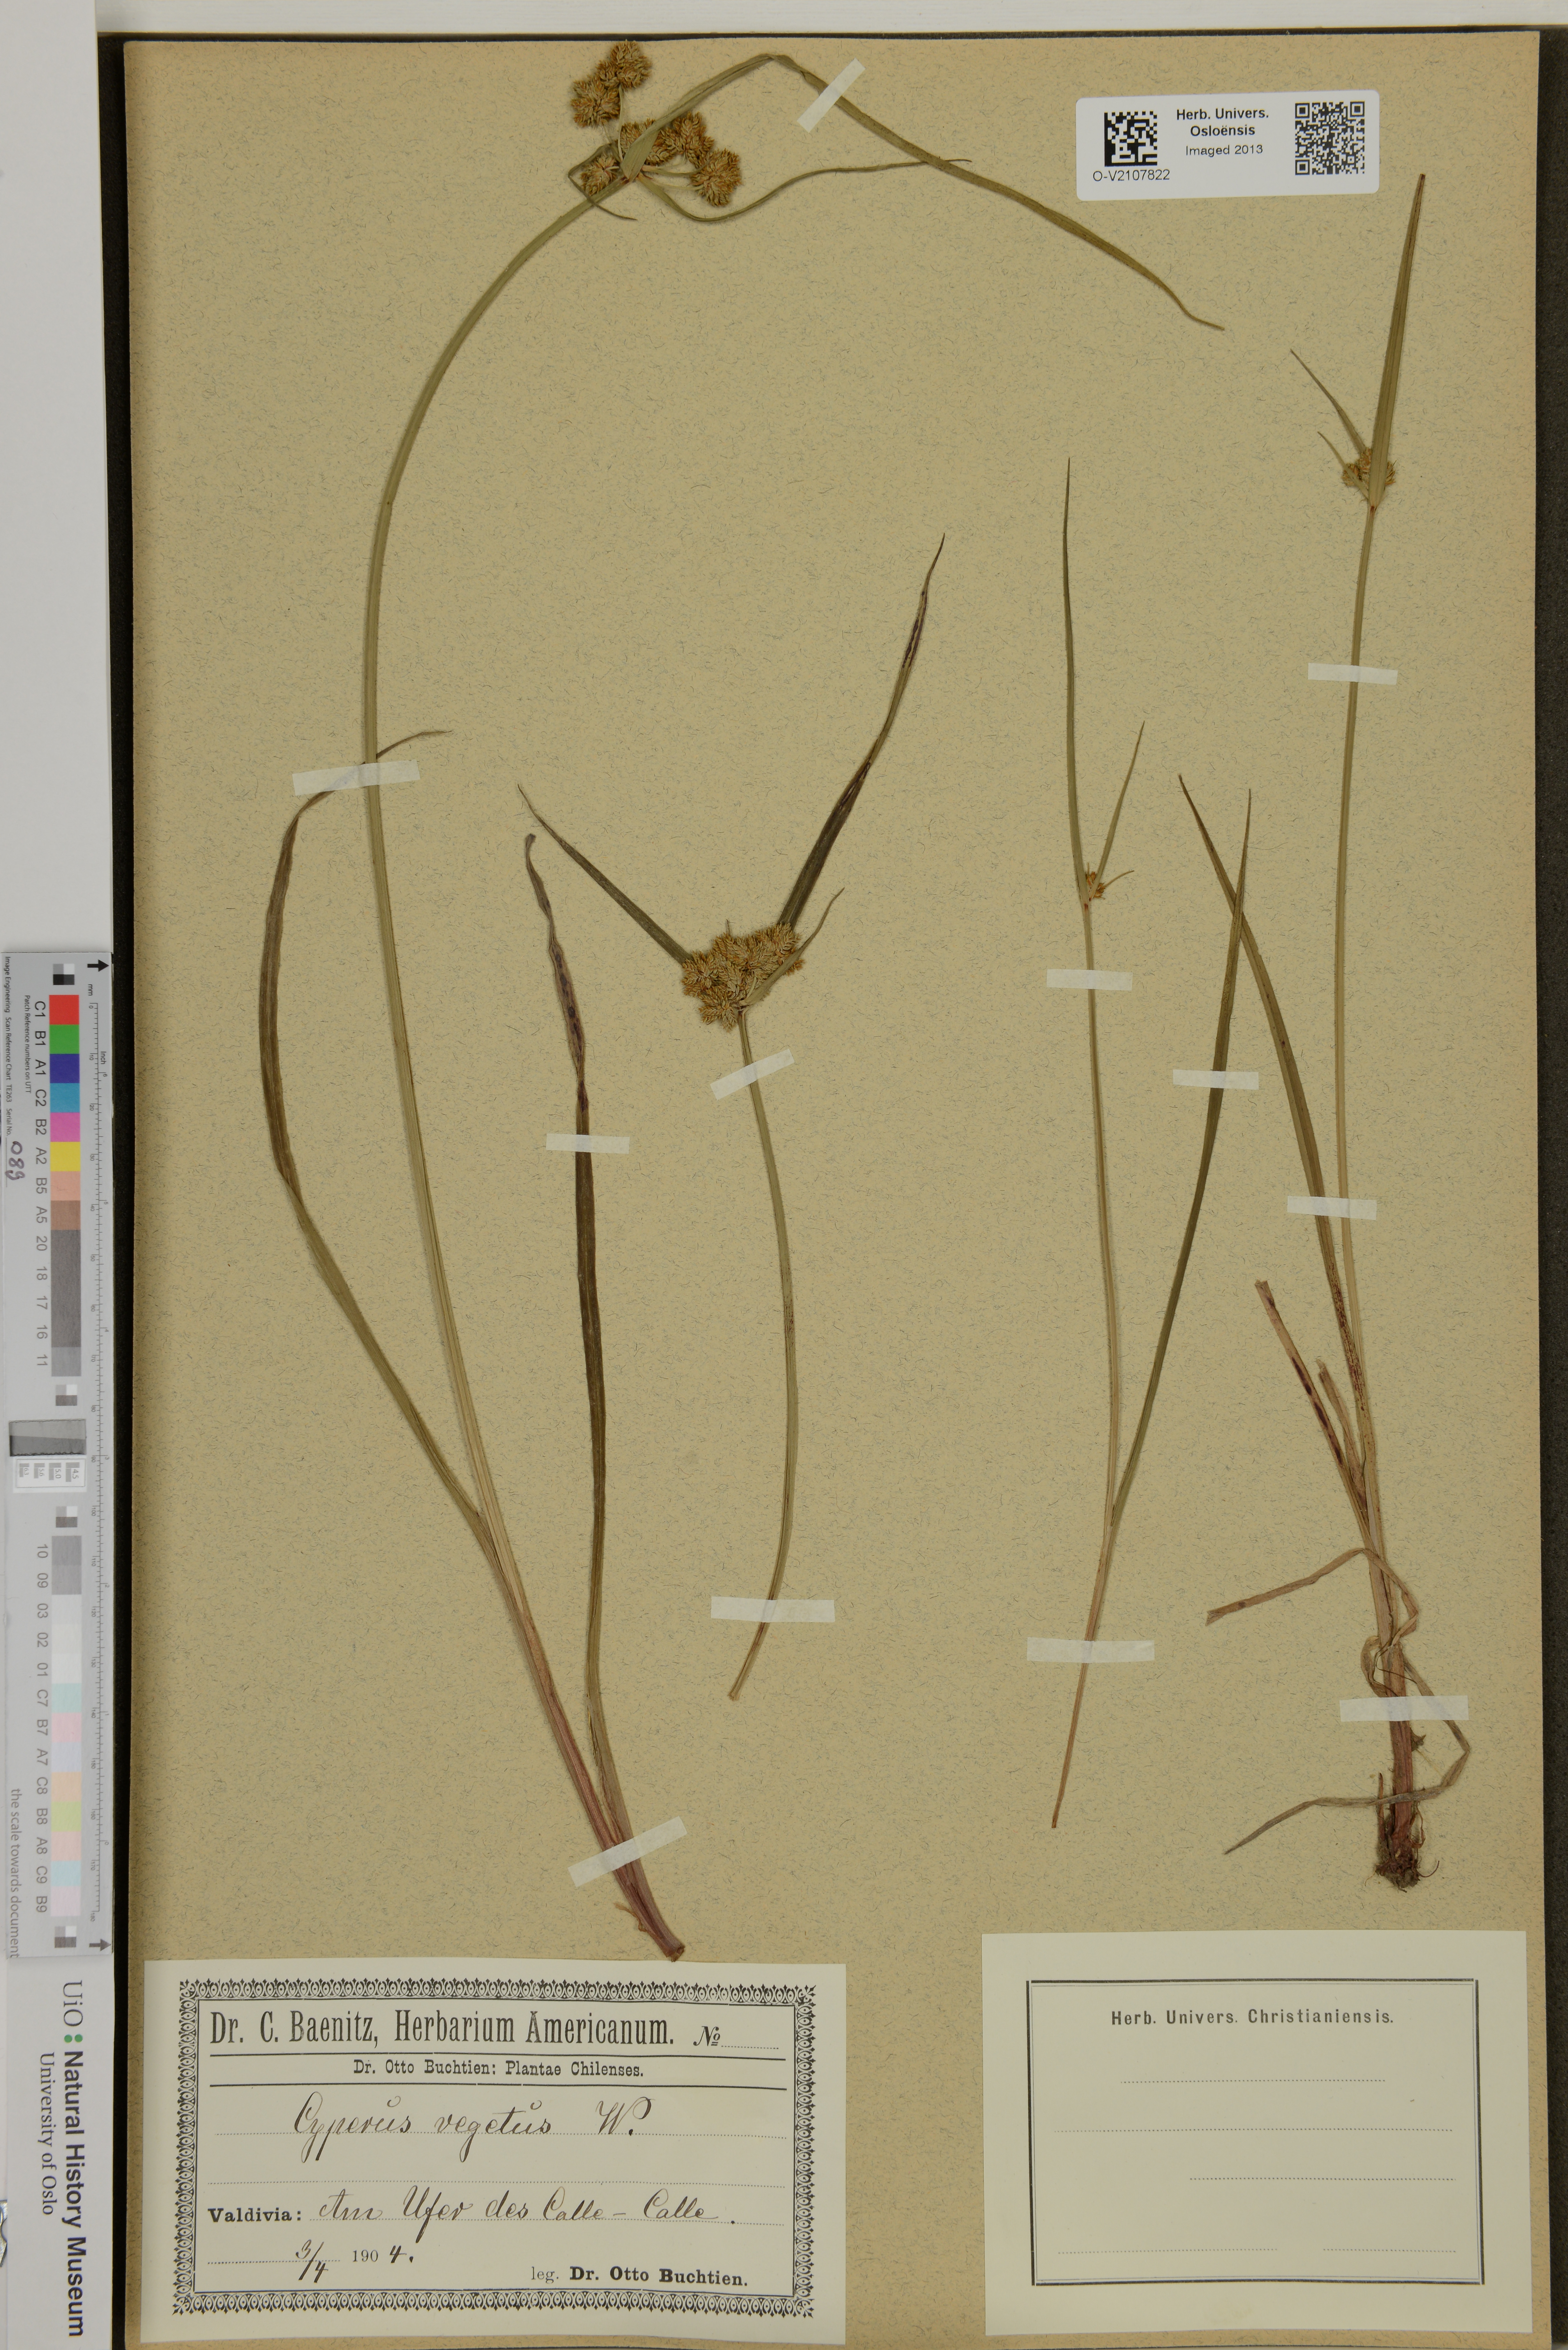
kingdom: Plantae
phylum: Tracheophyta
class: Liliopsida
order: Poales
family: Cyperaceae
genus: Cyperus
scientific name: Cyperus eragrostis
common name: Tall flatsedge
